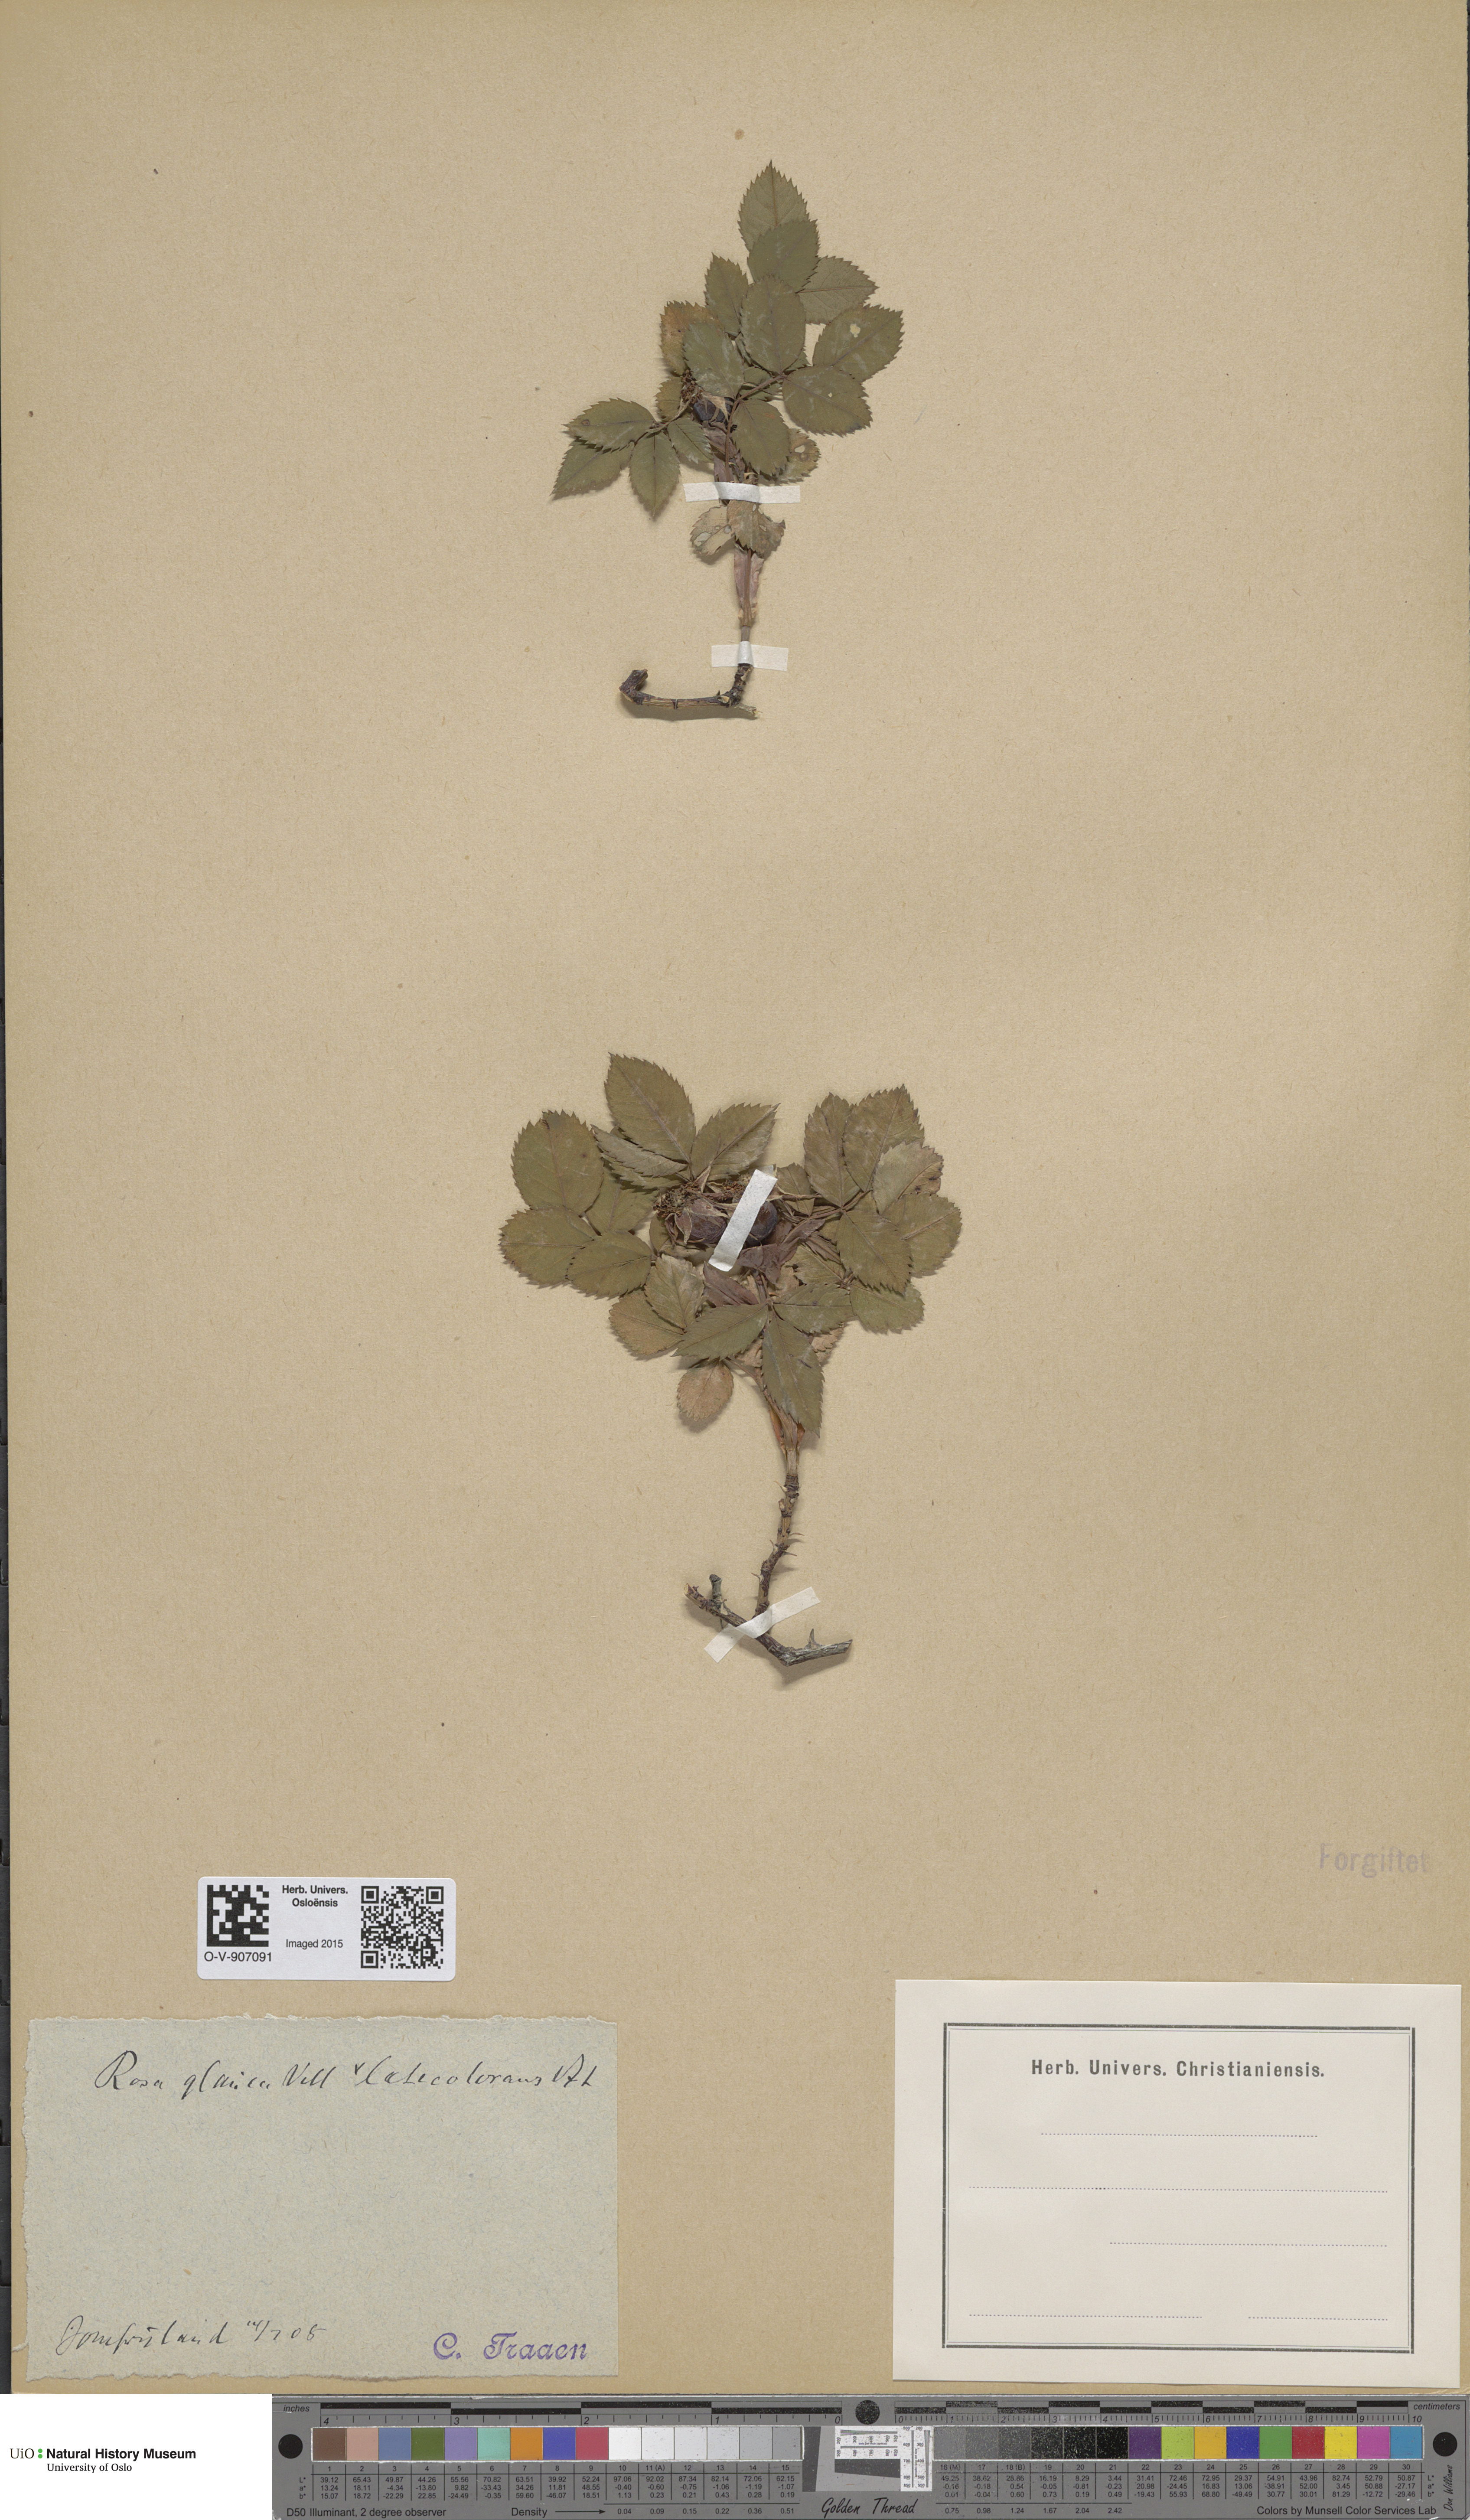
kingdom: Plantae
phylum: Tracheophyta
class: Magnoliopsida
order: Rosales
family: Rosaceae
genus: Rosa
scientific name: Rosa glauca
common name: Redleaf rose
